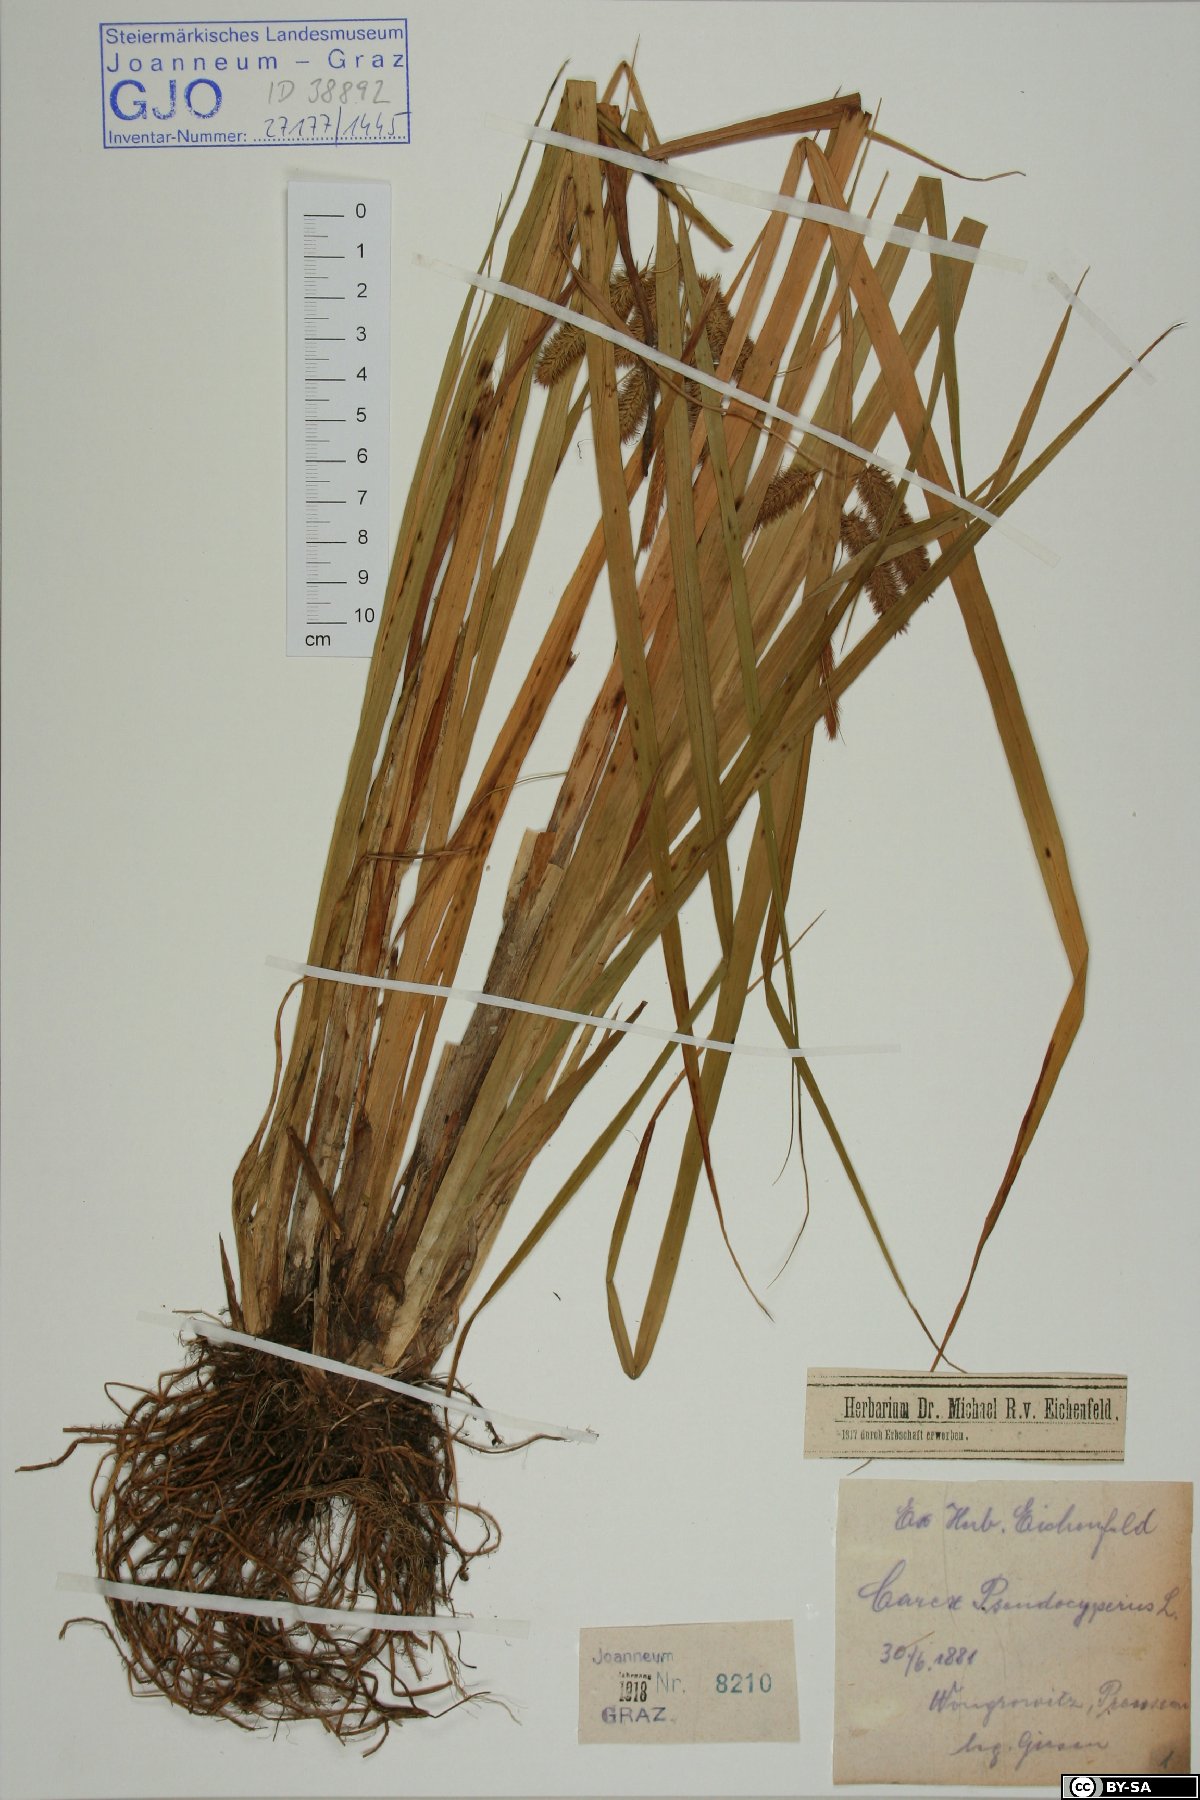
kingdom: Plantae
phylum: Tracheophyta
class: Liliopsida
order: Poales
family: Cyperaceae
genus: Carex
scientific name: Carex pseudocyperus
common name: Cyperus sedge
